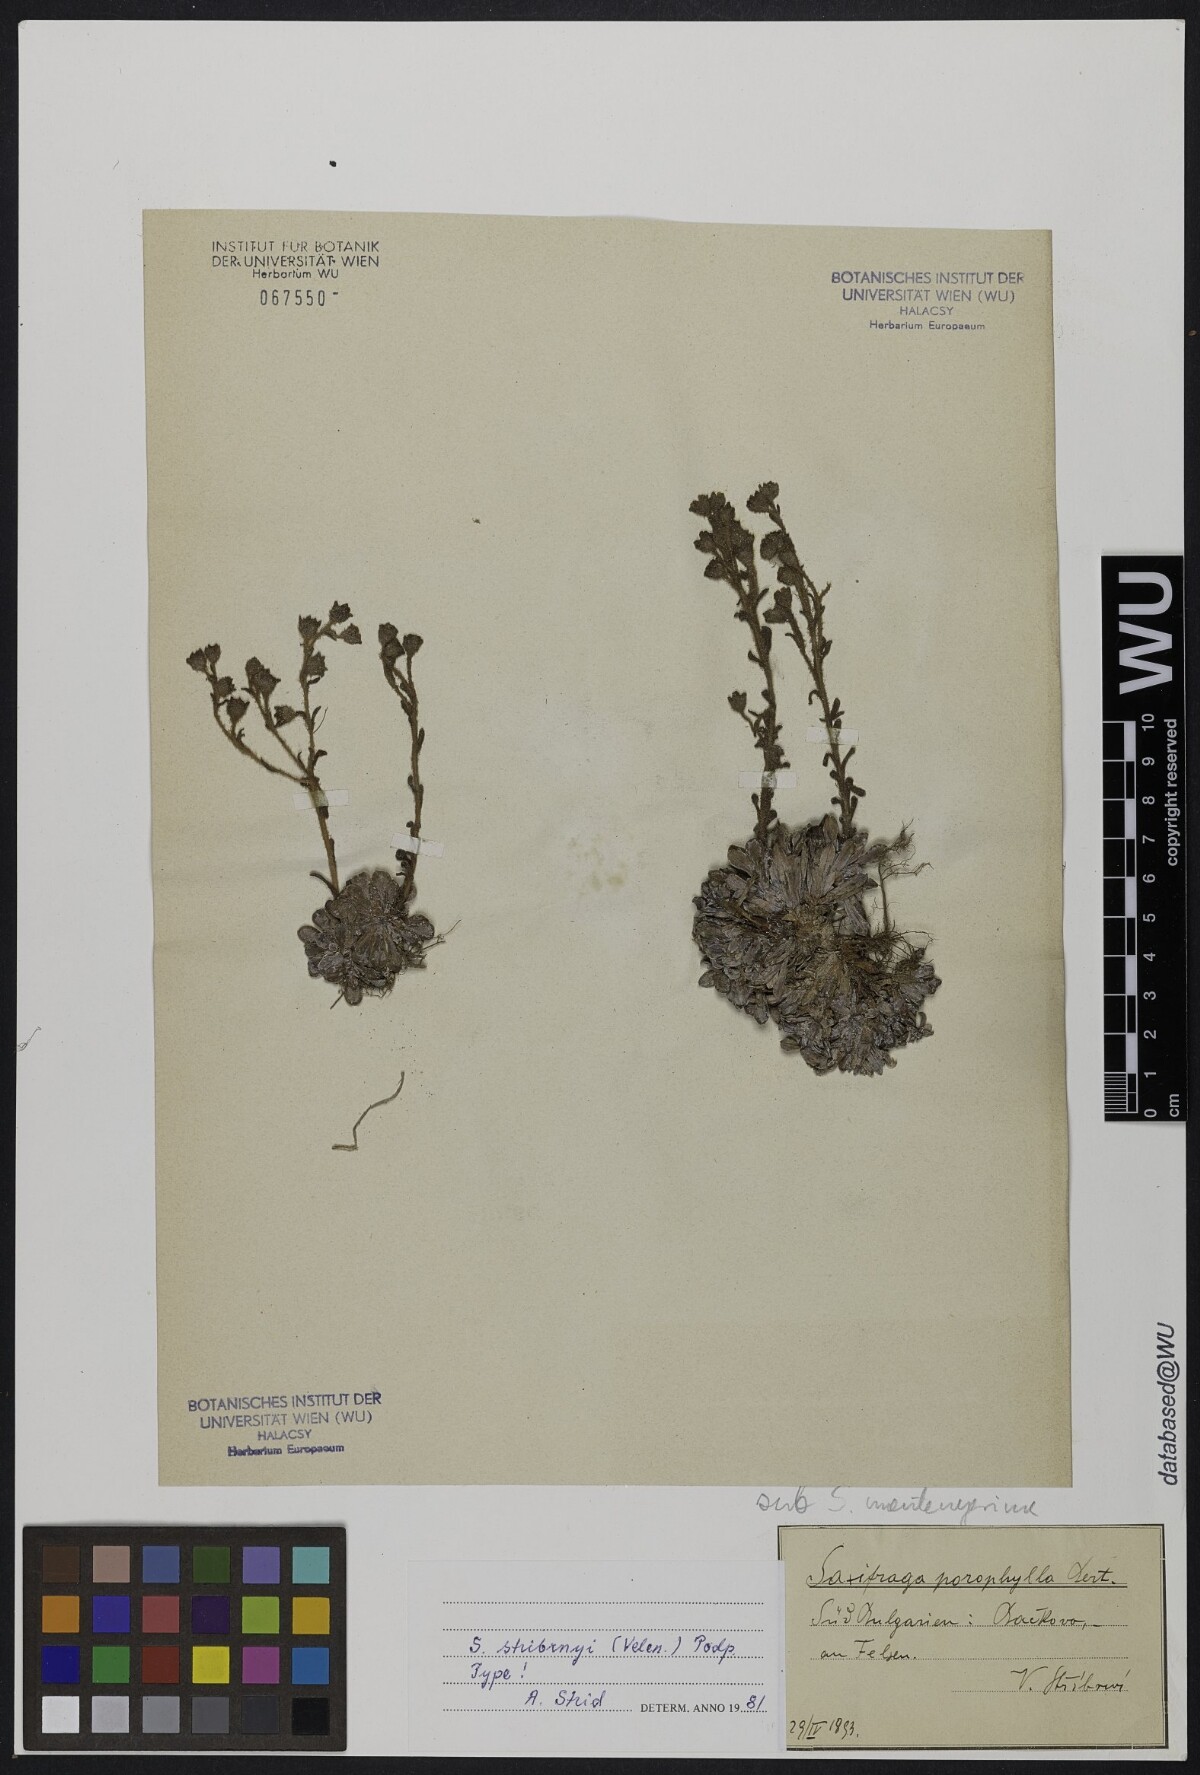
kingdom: Plantae
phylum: Tracheophyta
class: Magnoliopsida
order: Saxifragales
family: Saxifragaceae
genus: Saxifraga
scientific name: Saxifraga stribrnyi
